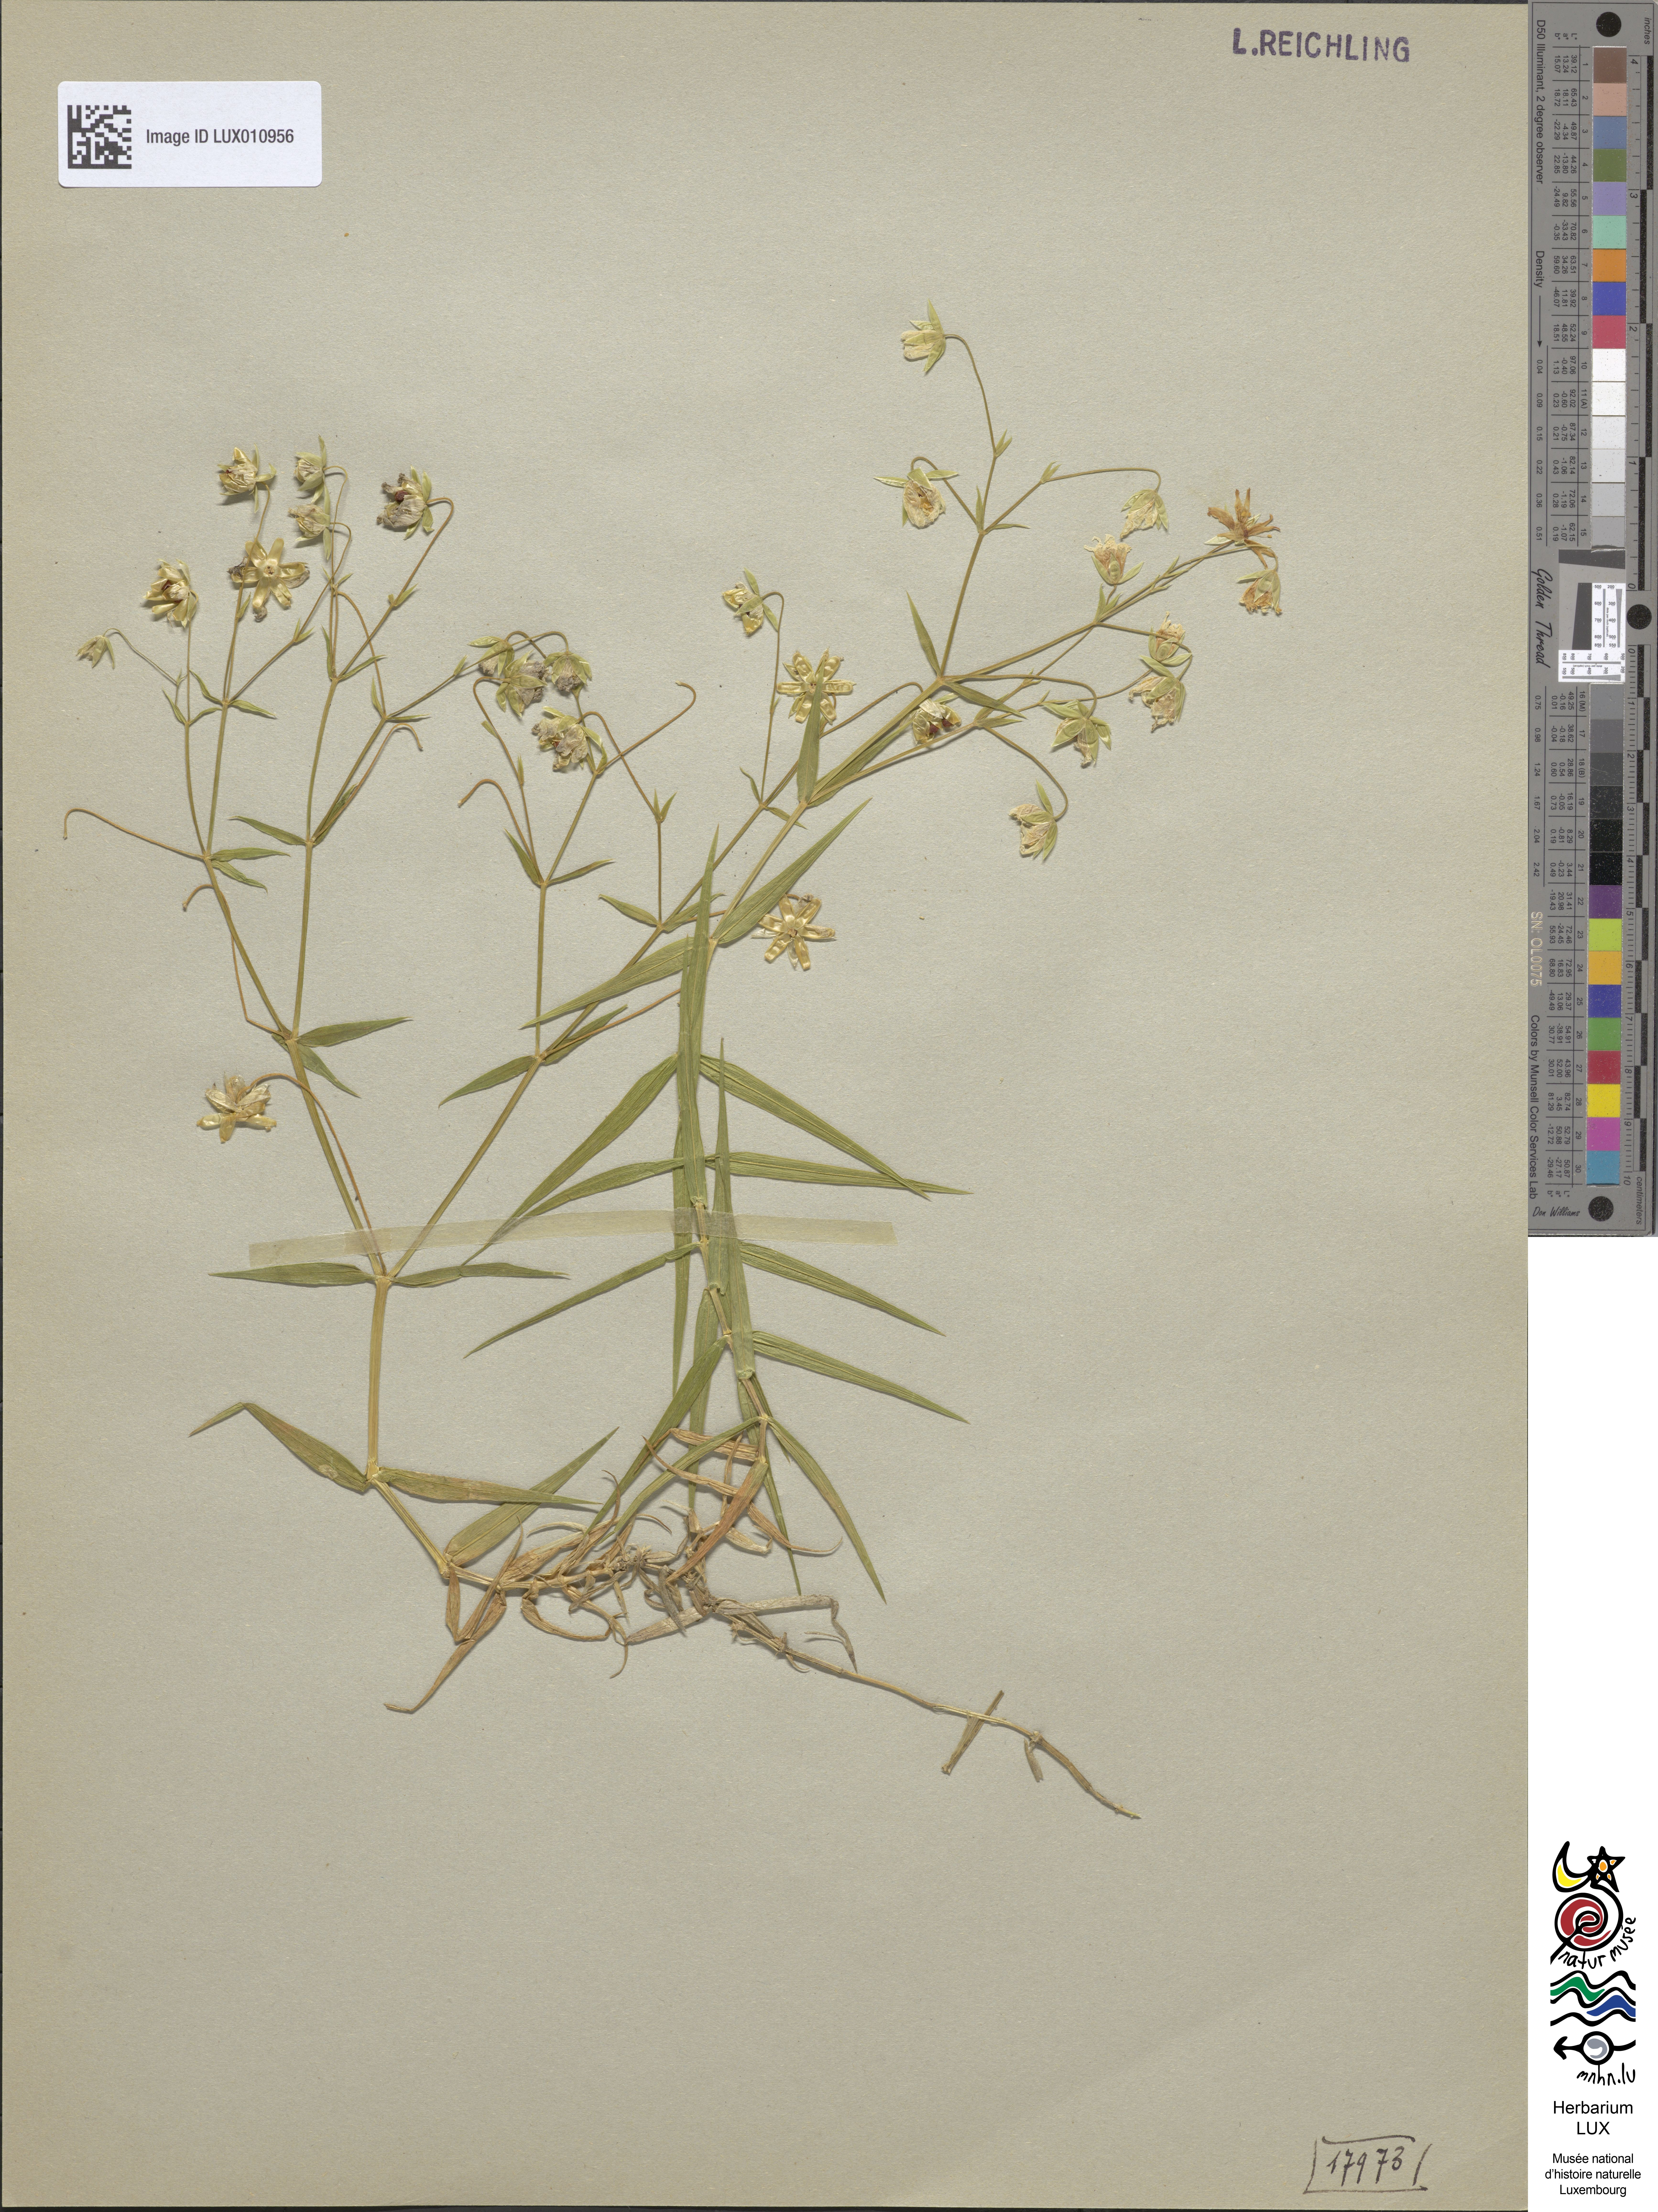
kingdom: Plantae
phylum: Tracheophyta
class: Magnoliopsida
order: Caryophyllales
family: Caryophyllaceae
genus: Rabelera
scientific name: Rabelera holostea
